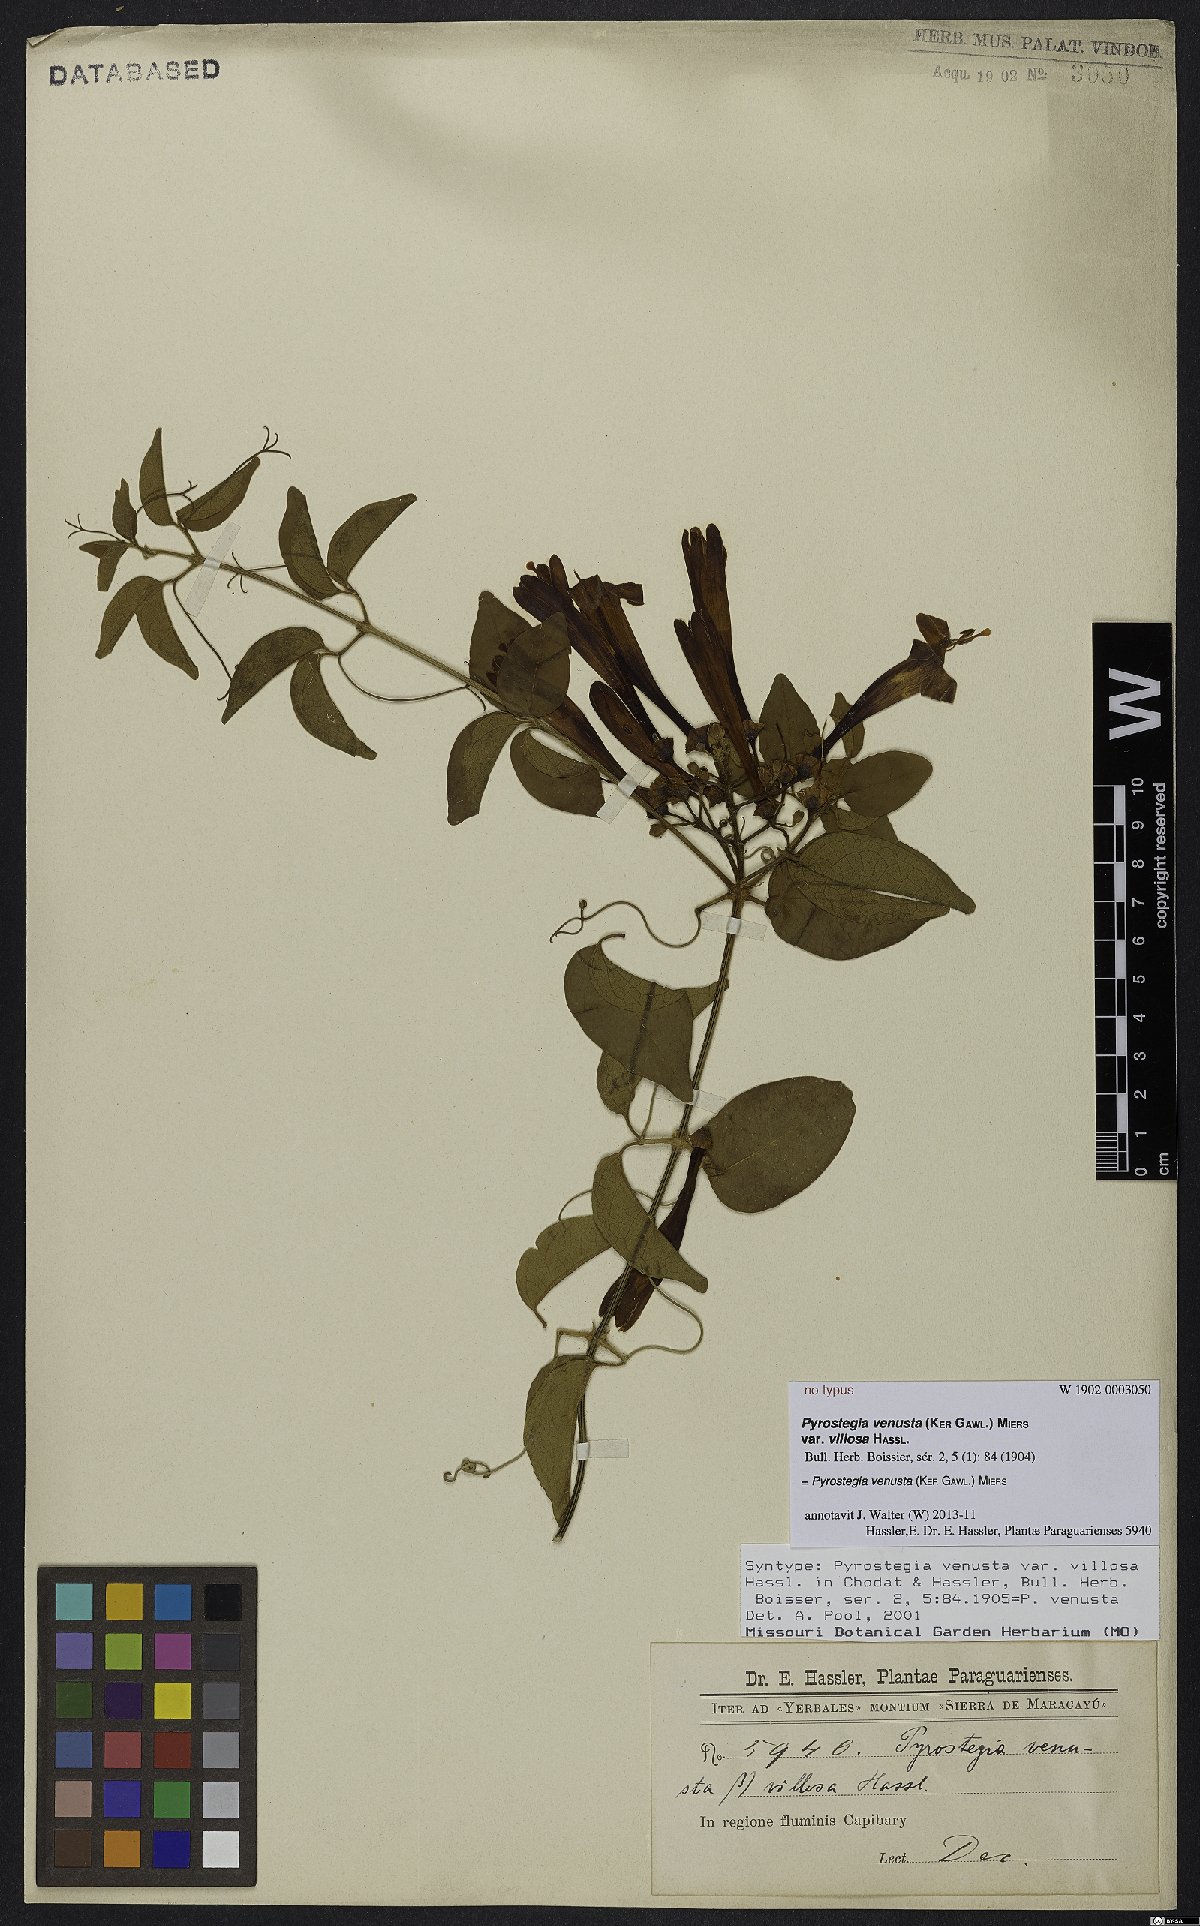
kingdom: Plantae
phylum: Tracheophyta
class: Magnoliopsida
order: Lamiales
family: Bignoniaceae
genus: Pyrostegia
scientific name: Pyrostegia venusta
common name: Flamevine
